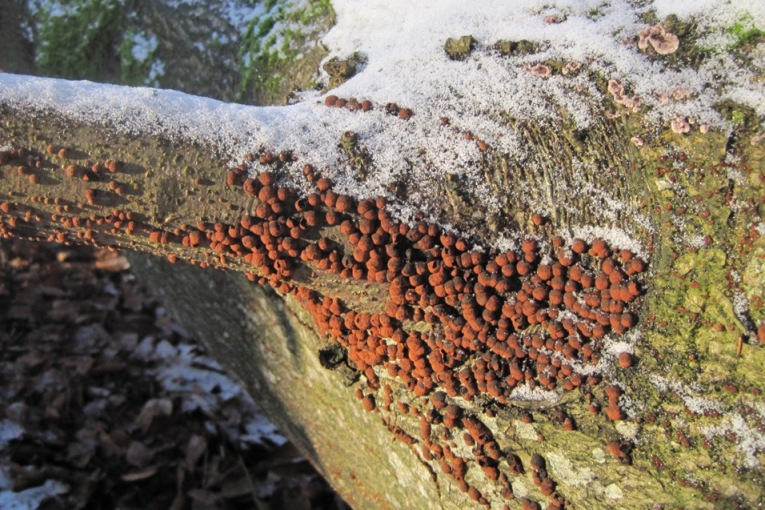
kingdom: Fungi
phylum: Ascomycota
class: Sordariomycetes
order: Xylariales
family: Hypoxylaceae
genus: Hypoxylon
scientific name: Hypoxylon fragiforme
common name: kuljordbær
